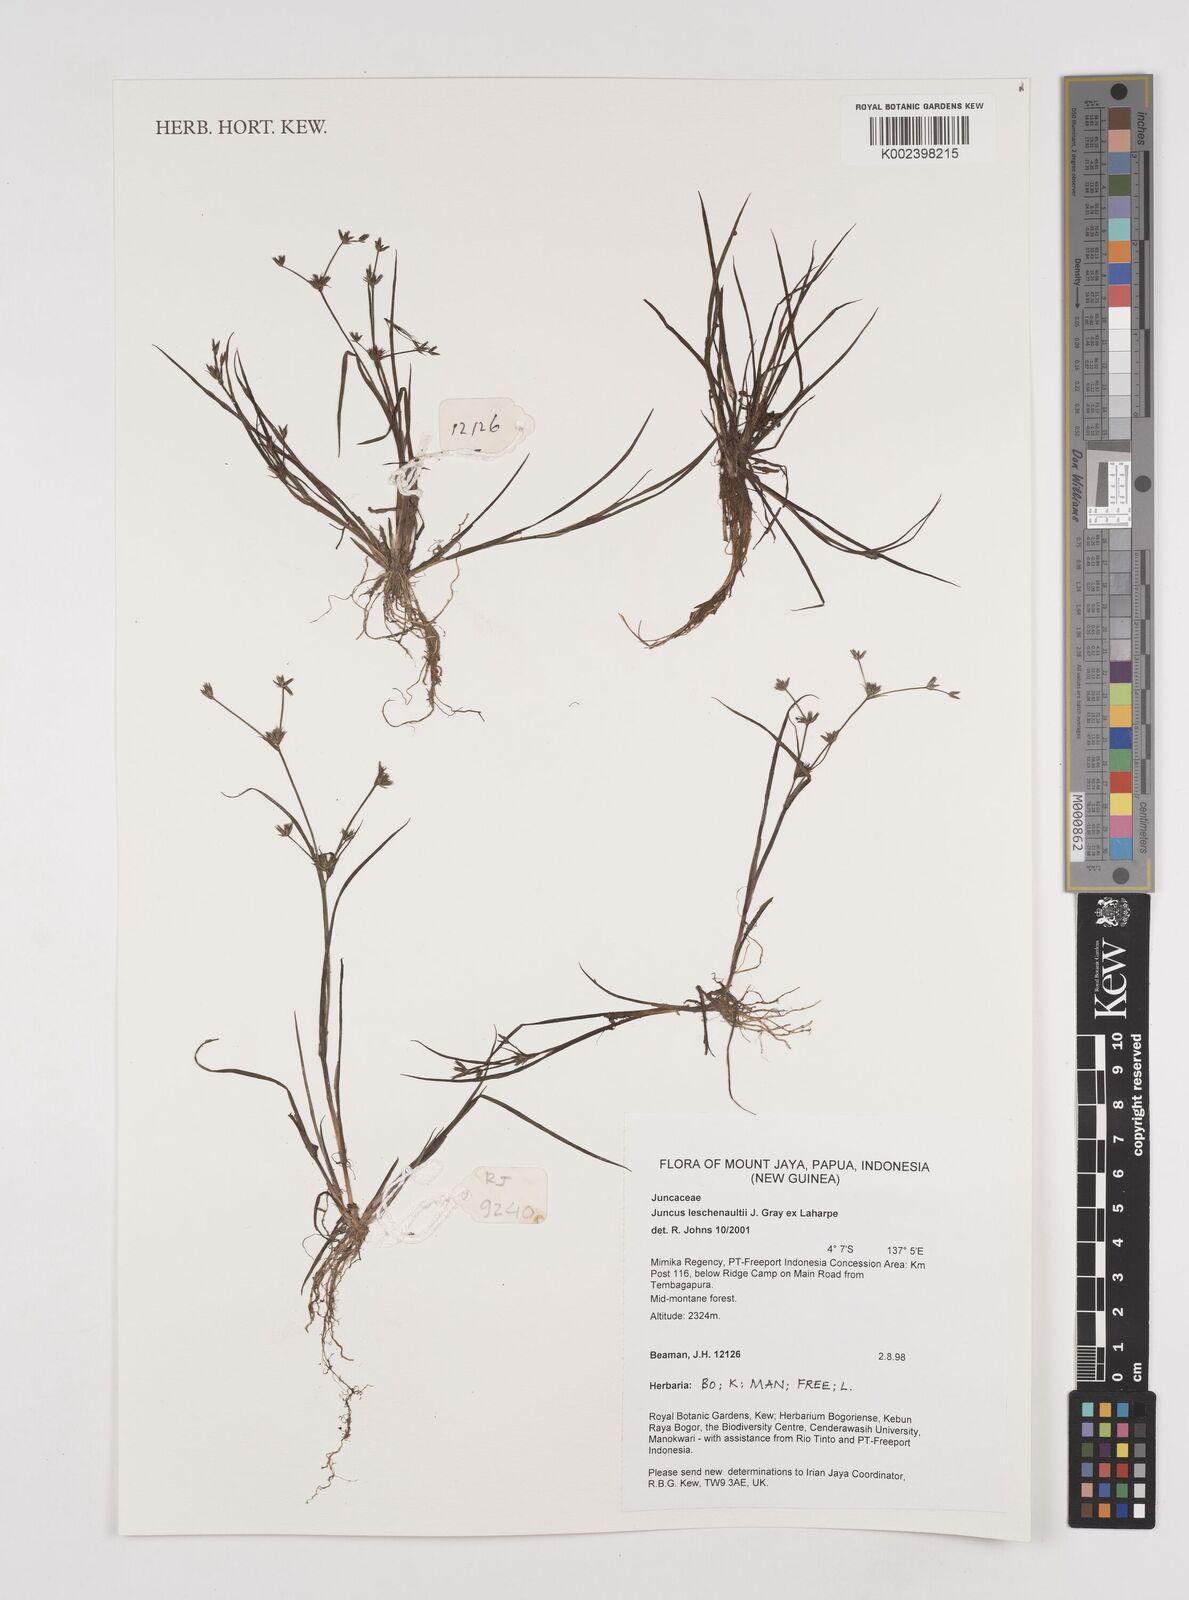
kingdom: Plantae
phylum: Tracheophyta
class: Liliopsida
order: Poales
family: Juncaceae
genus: Juncus
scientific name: Juncus prismatocarpus
